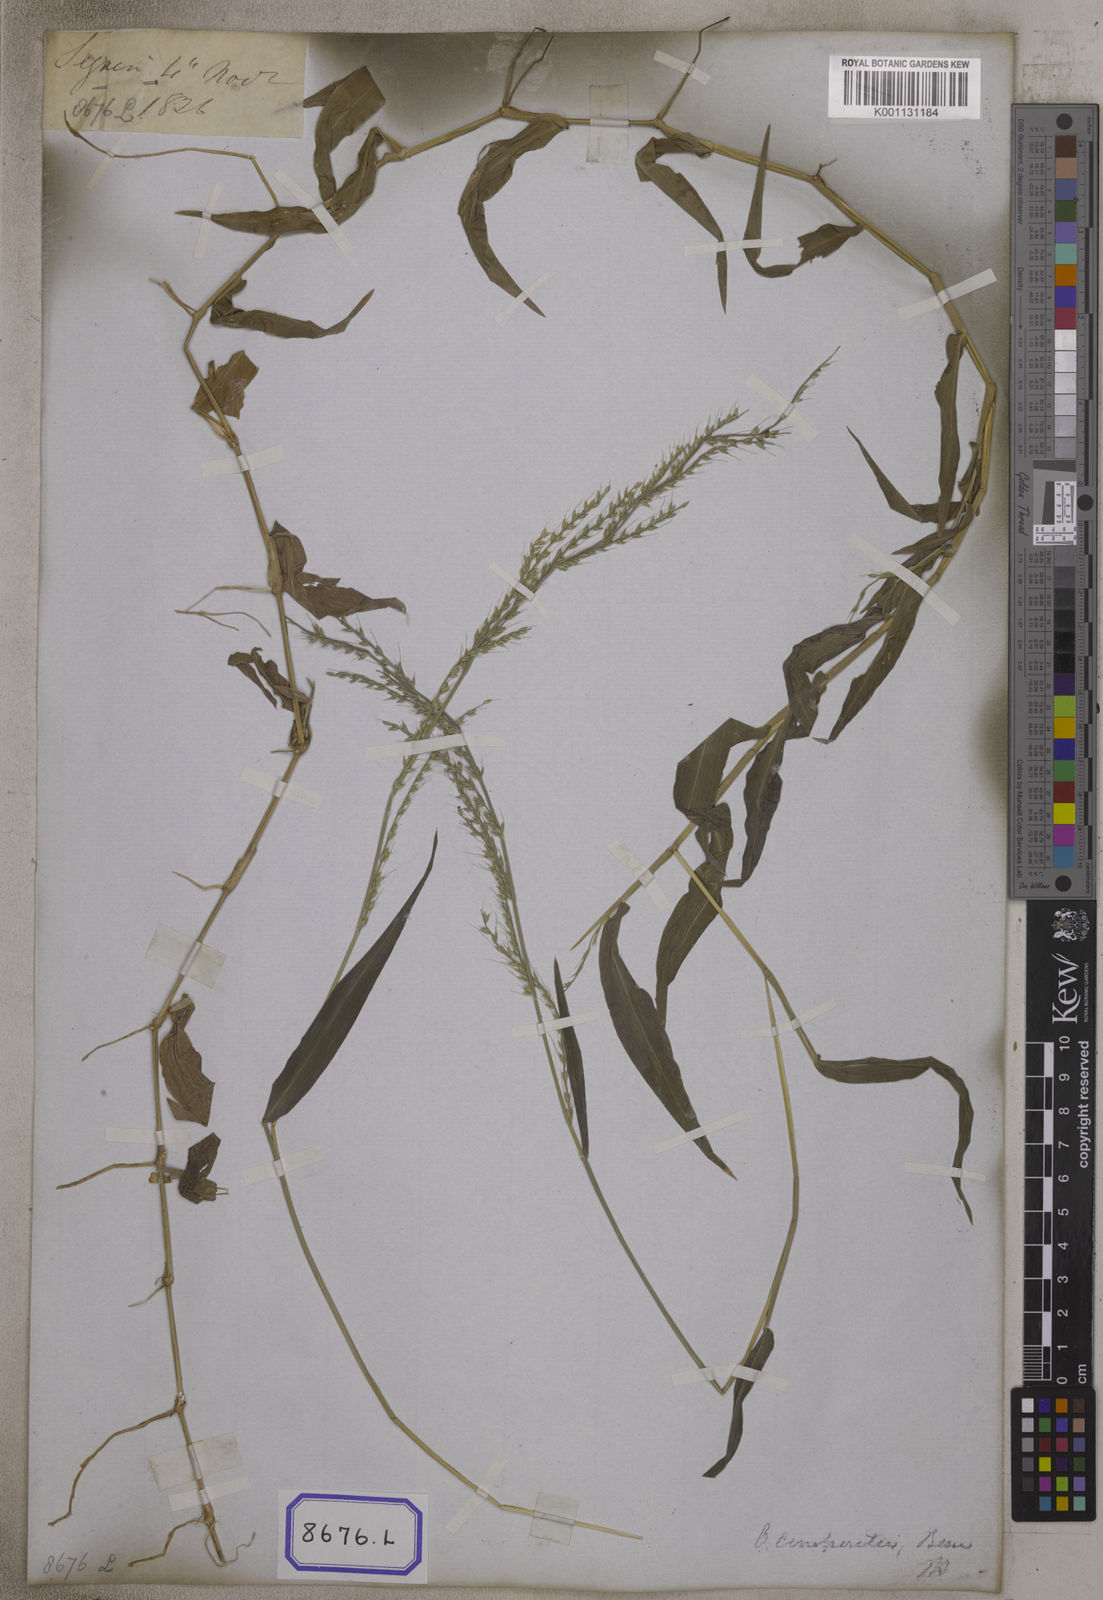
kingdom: Plantae
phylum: Tracheophyta
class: Liliopsida
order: Poales
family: Poaceae
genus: Oplismenus
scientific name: Oplismenus compositus
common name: Running mountain grass
